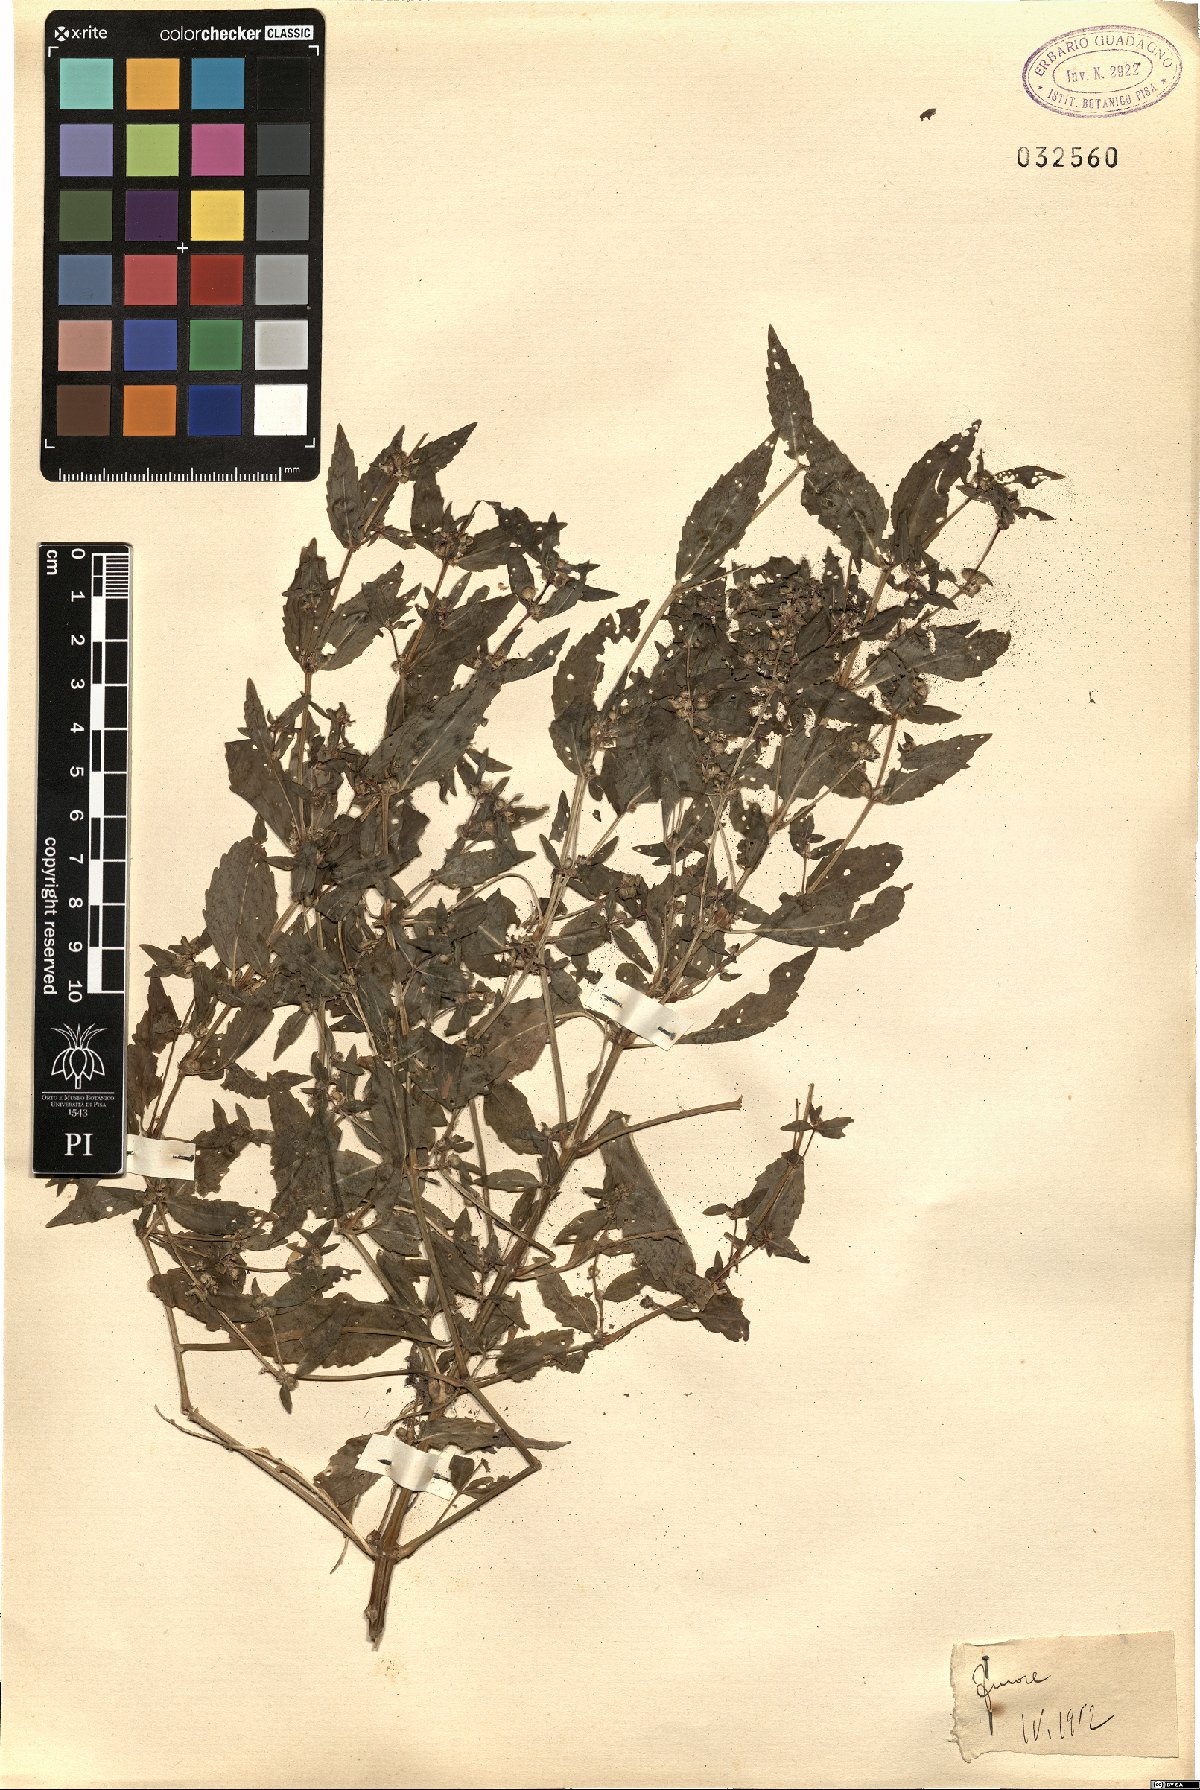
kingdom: Plantae
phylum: Tracheophyta
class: Magnoliopsida
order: Malpighiales
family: Euphorbiaceae
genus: Mercurialis
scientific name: Mercurialis
